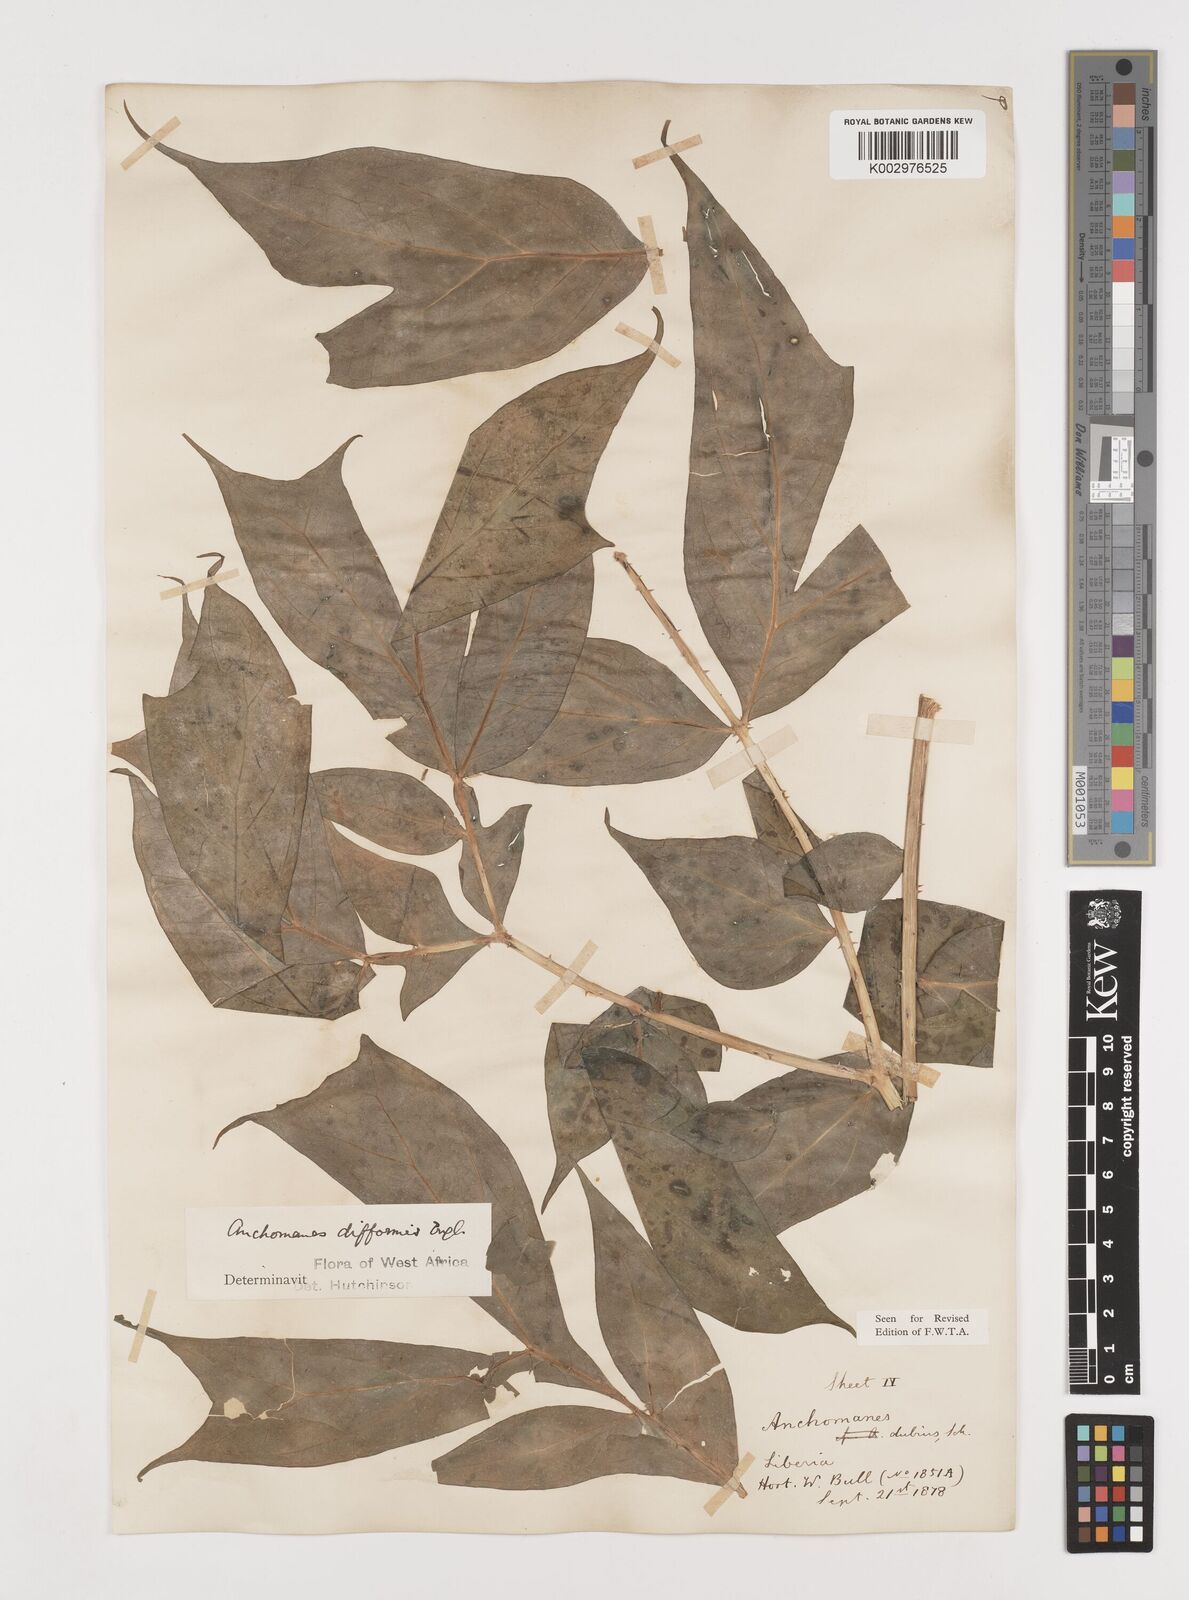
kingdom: Plantae
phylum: Tracheophyta
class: Liliopsida
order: Alismatales
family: Araceae
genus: Anchomanes
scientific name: Anchomanes difformis
